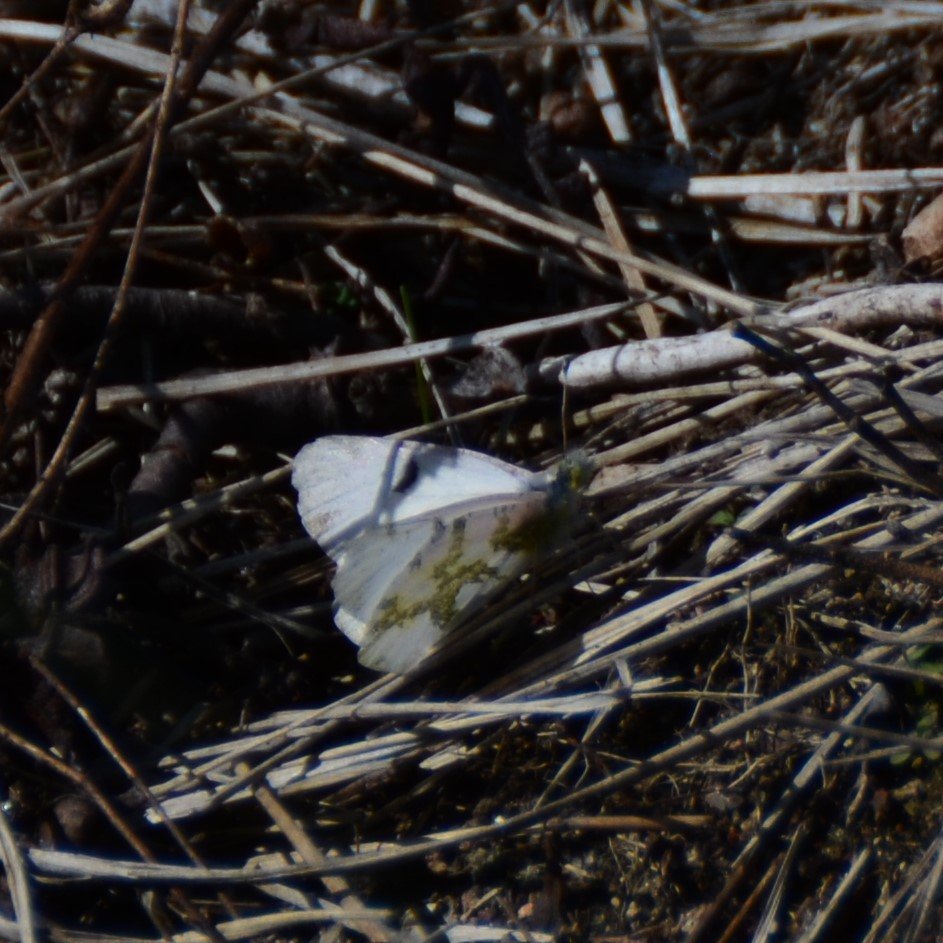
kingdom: Animalia
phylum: Arthropoda
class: Insecta
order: Lepidoptera
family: Pieridae
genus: Euchloe
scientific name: Euchloe olympia
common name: Olympia Marble
